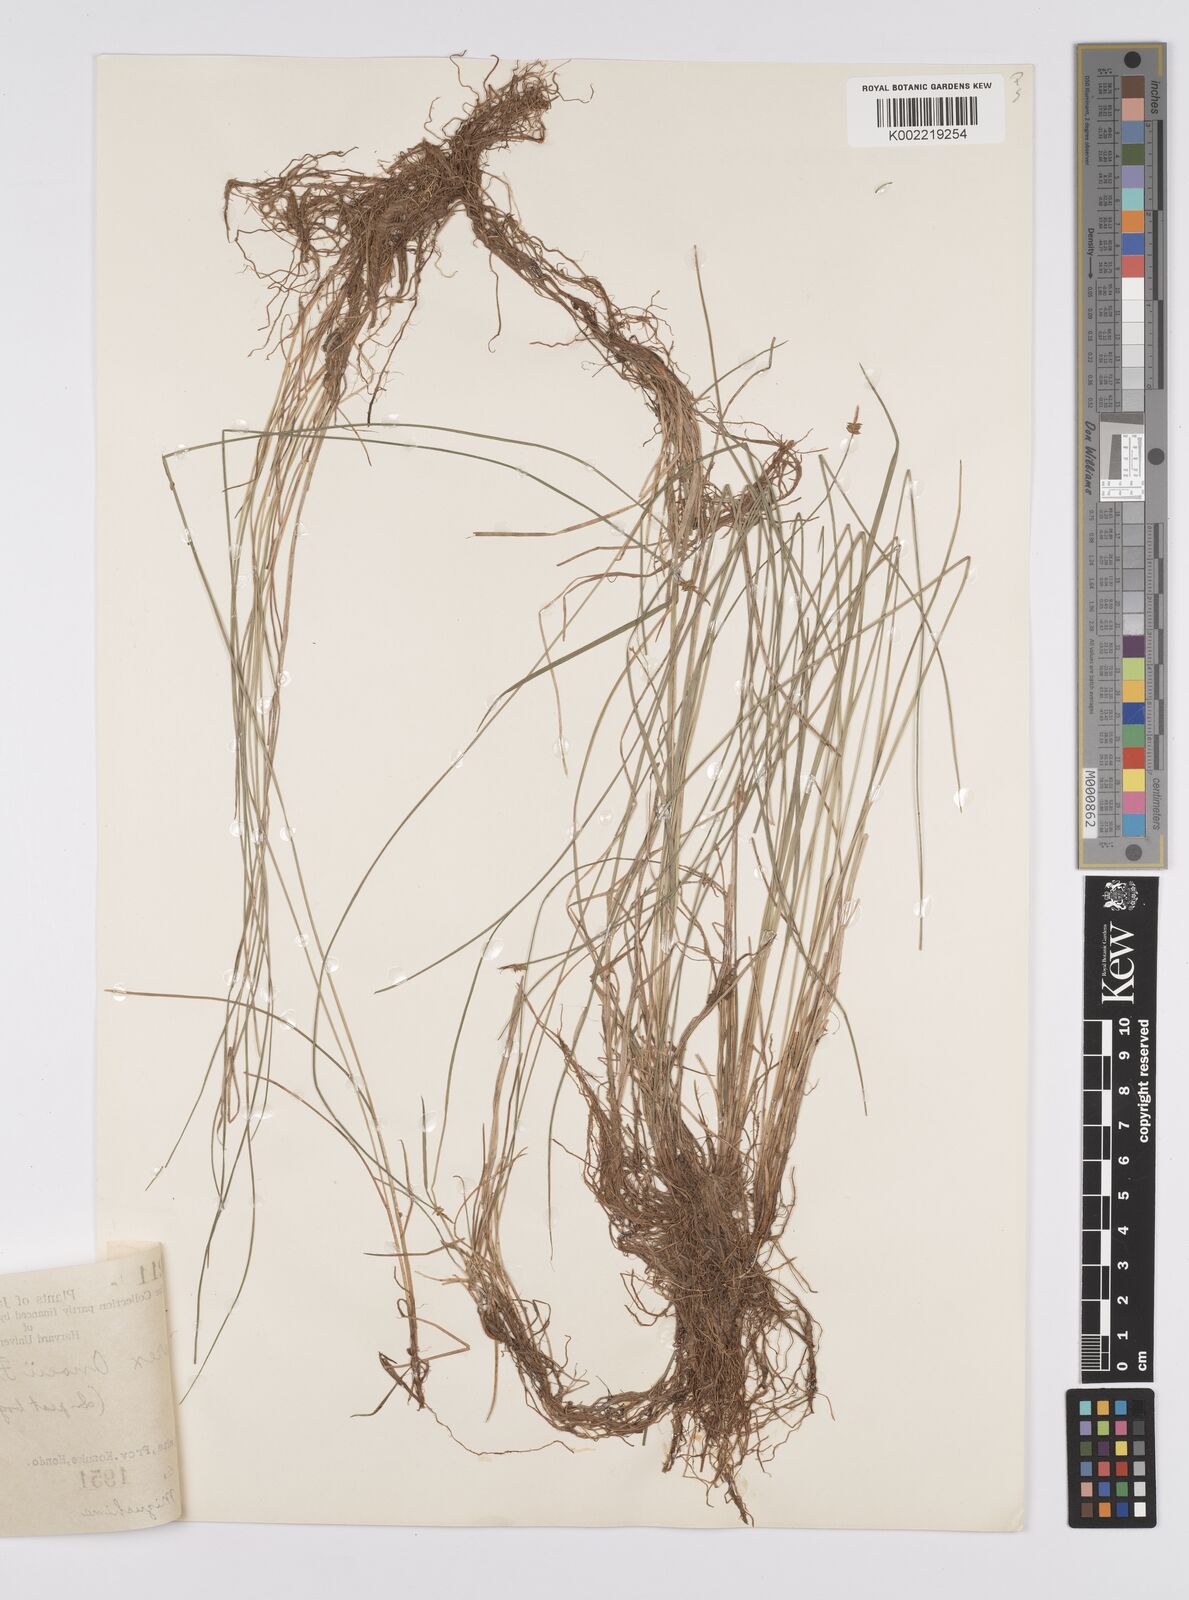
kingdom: Plantae
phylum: Tracheophyta
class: Liliopsida
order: Poales
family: Cyperaceae
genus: Carex
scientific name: Carex onoei
